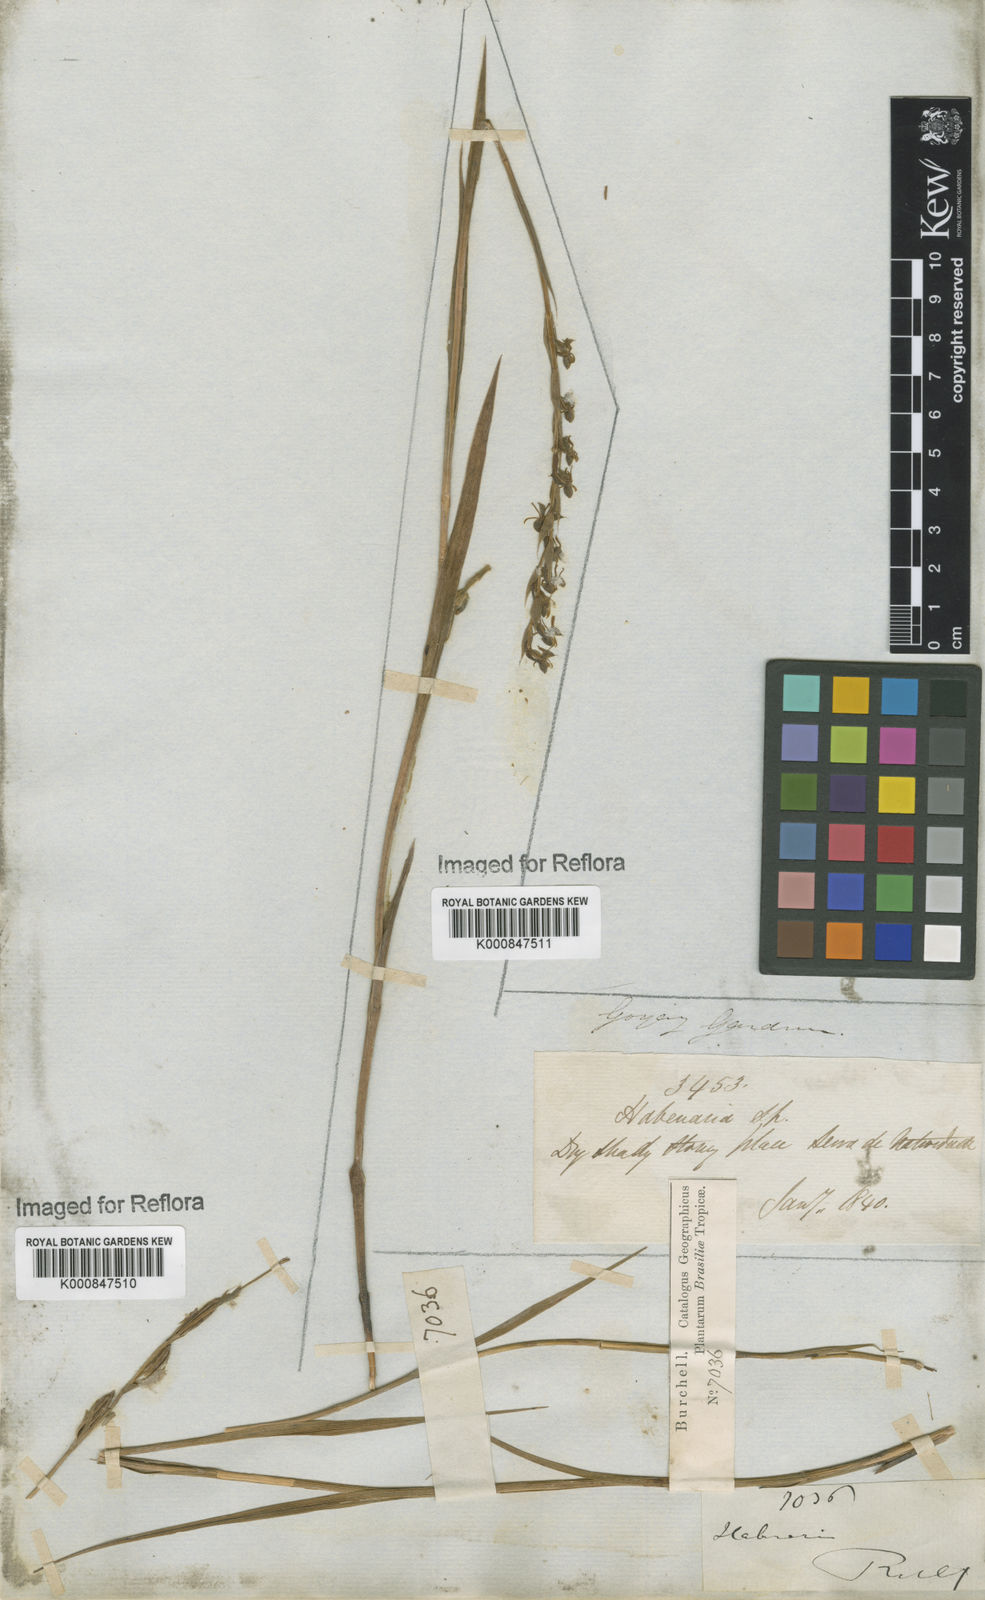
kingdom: Plantae
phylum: Tracheophyta
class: Liliopsida
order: Asparagales
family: Orchidaceae
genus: Habenaria
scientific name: Habenaria
